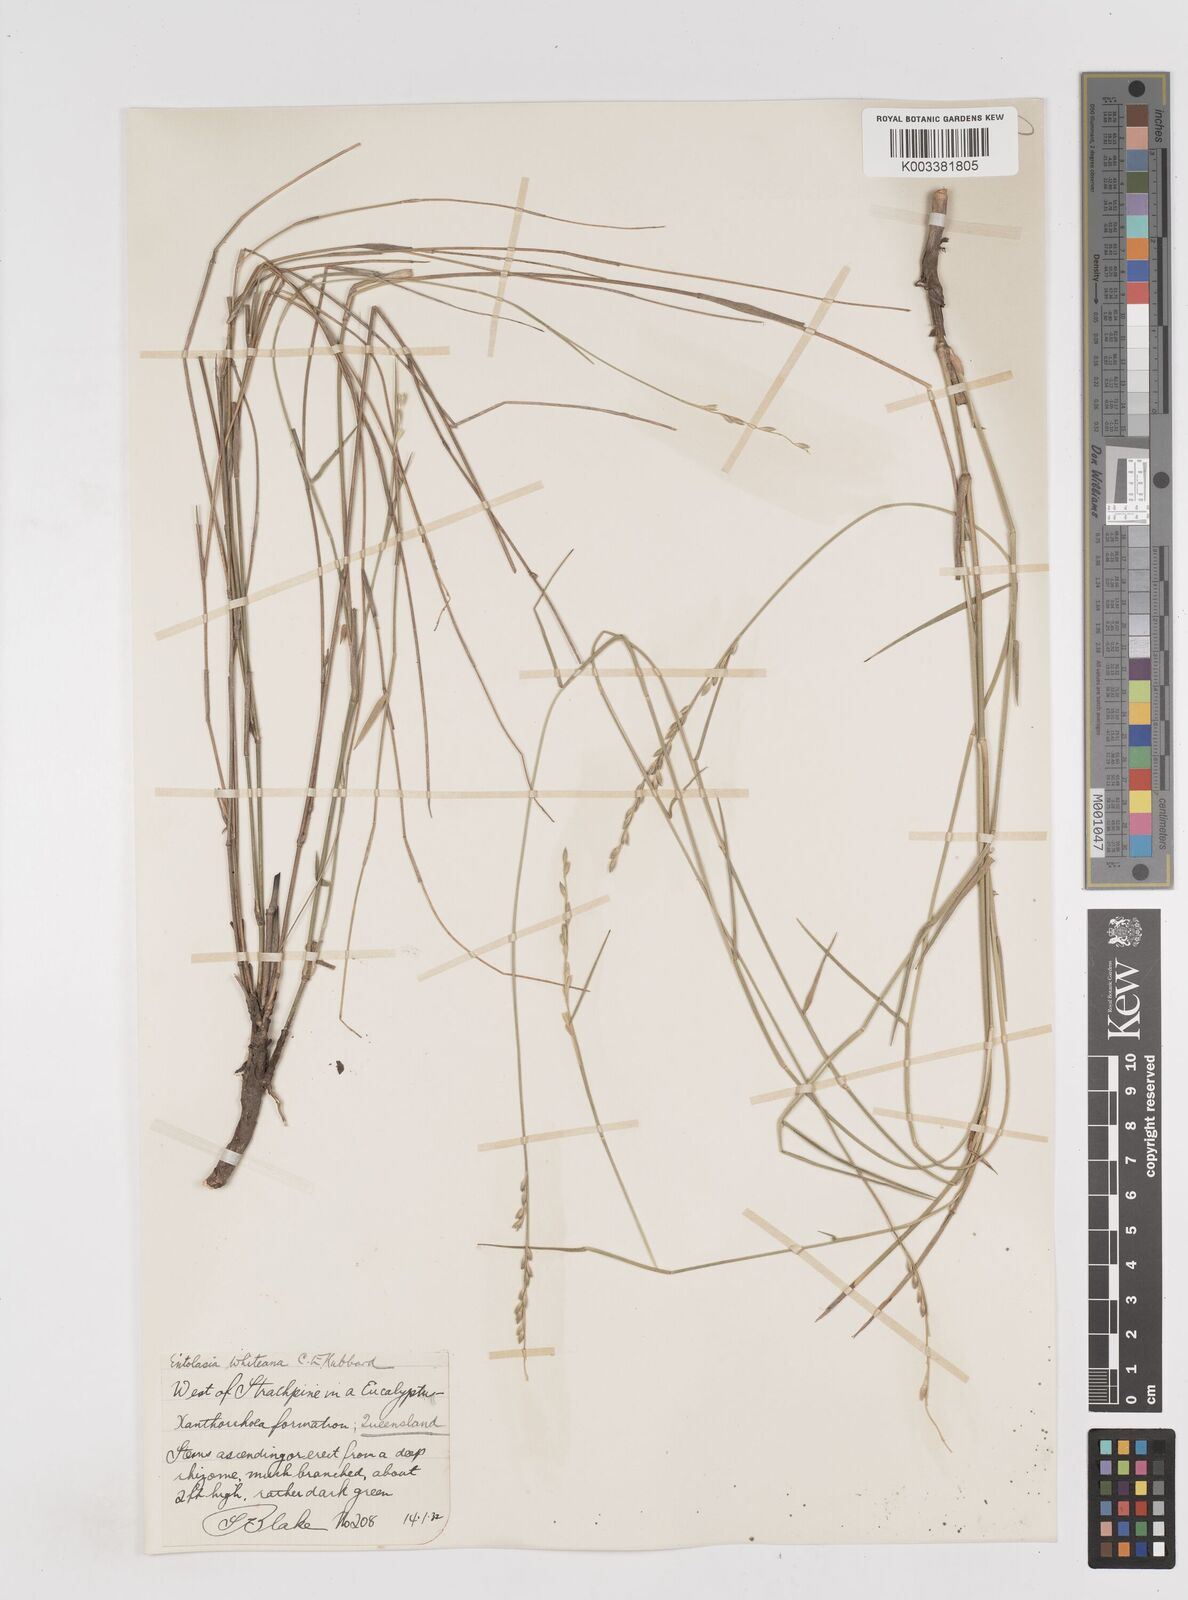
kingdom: Plantae
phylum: Tracheophyta
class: Liliopsida
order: Poales
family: Poaceae
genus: Entolasia
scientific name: Entolasia whiteana
